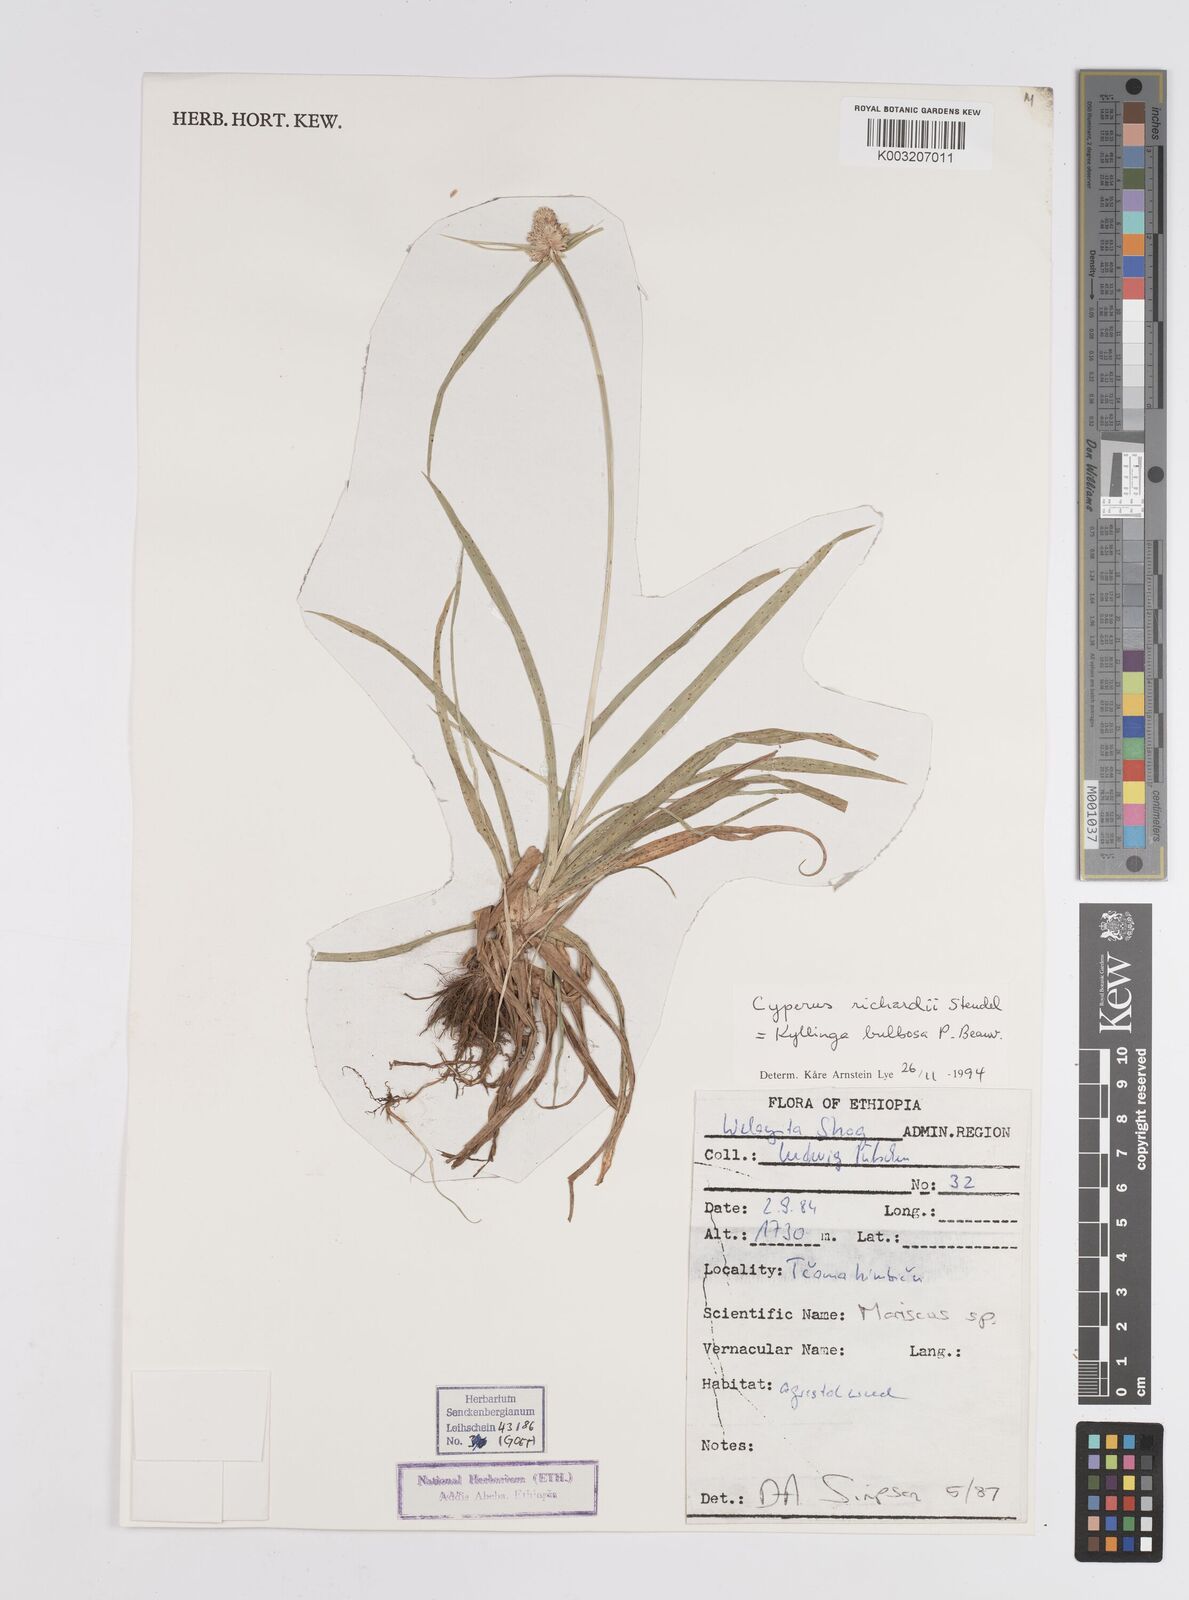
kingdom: Plantae
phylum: Tracheophyta
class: Liliopsida
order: Poales
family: Cyperaceae
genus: Cyperus
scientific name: Cyperus
